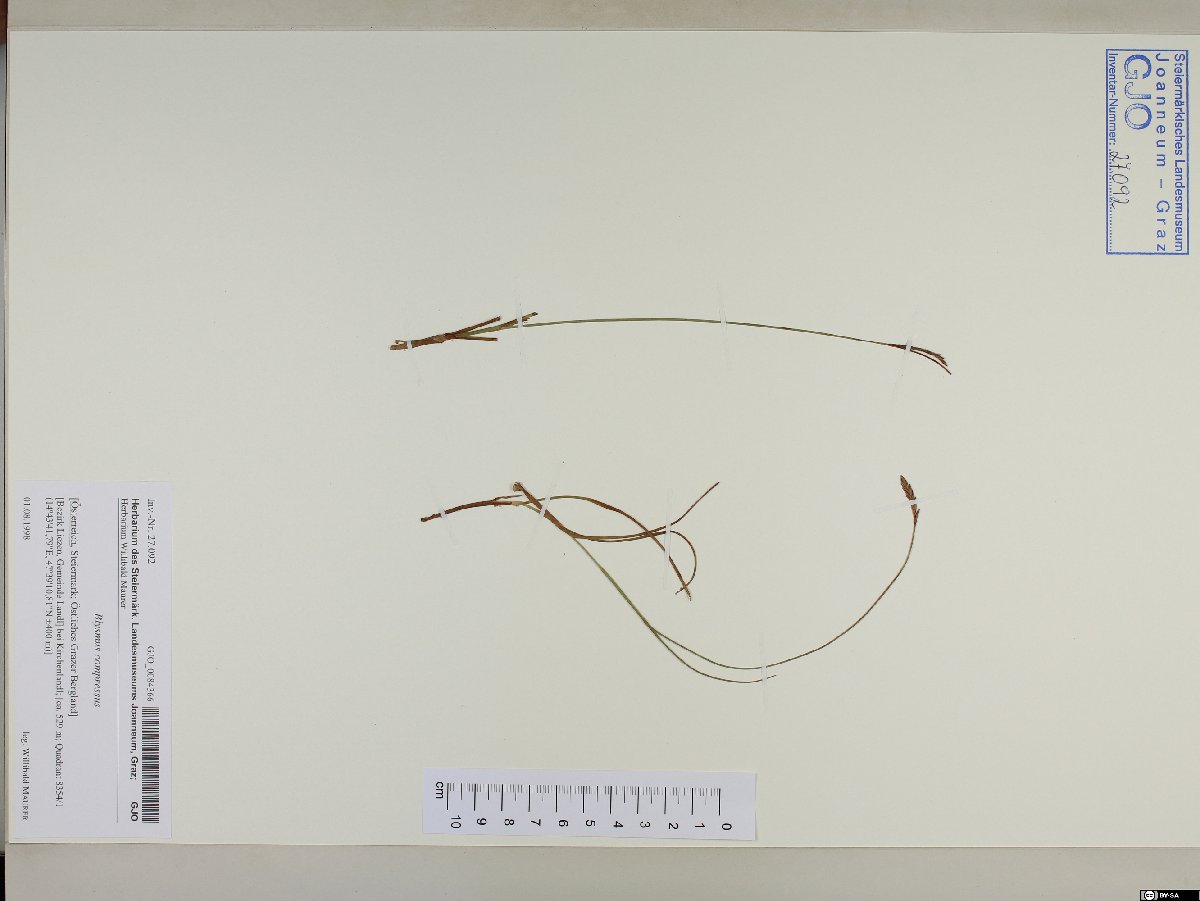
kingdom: Plantae
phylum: Tracheophyta
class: Liliopsida
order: Poales
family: Cyperaceae
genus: Blysmus
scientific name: Blysmus compressus
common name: Flat-sedge
